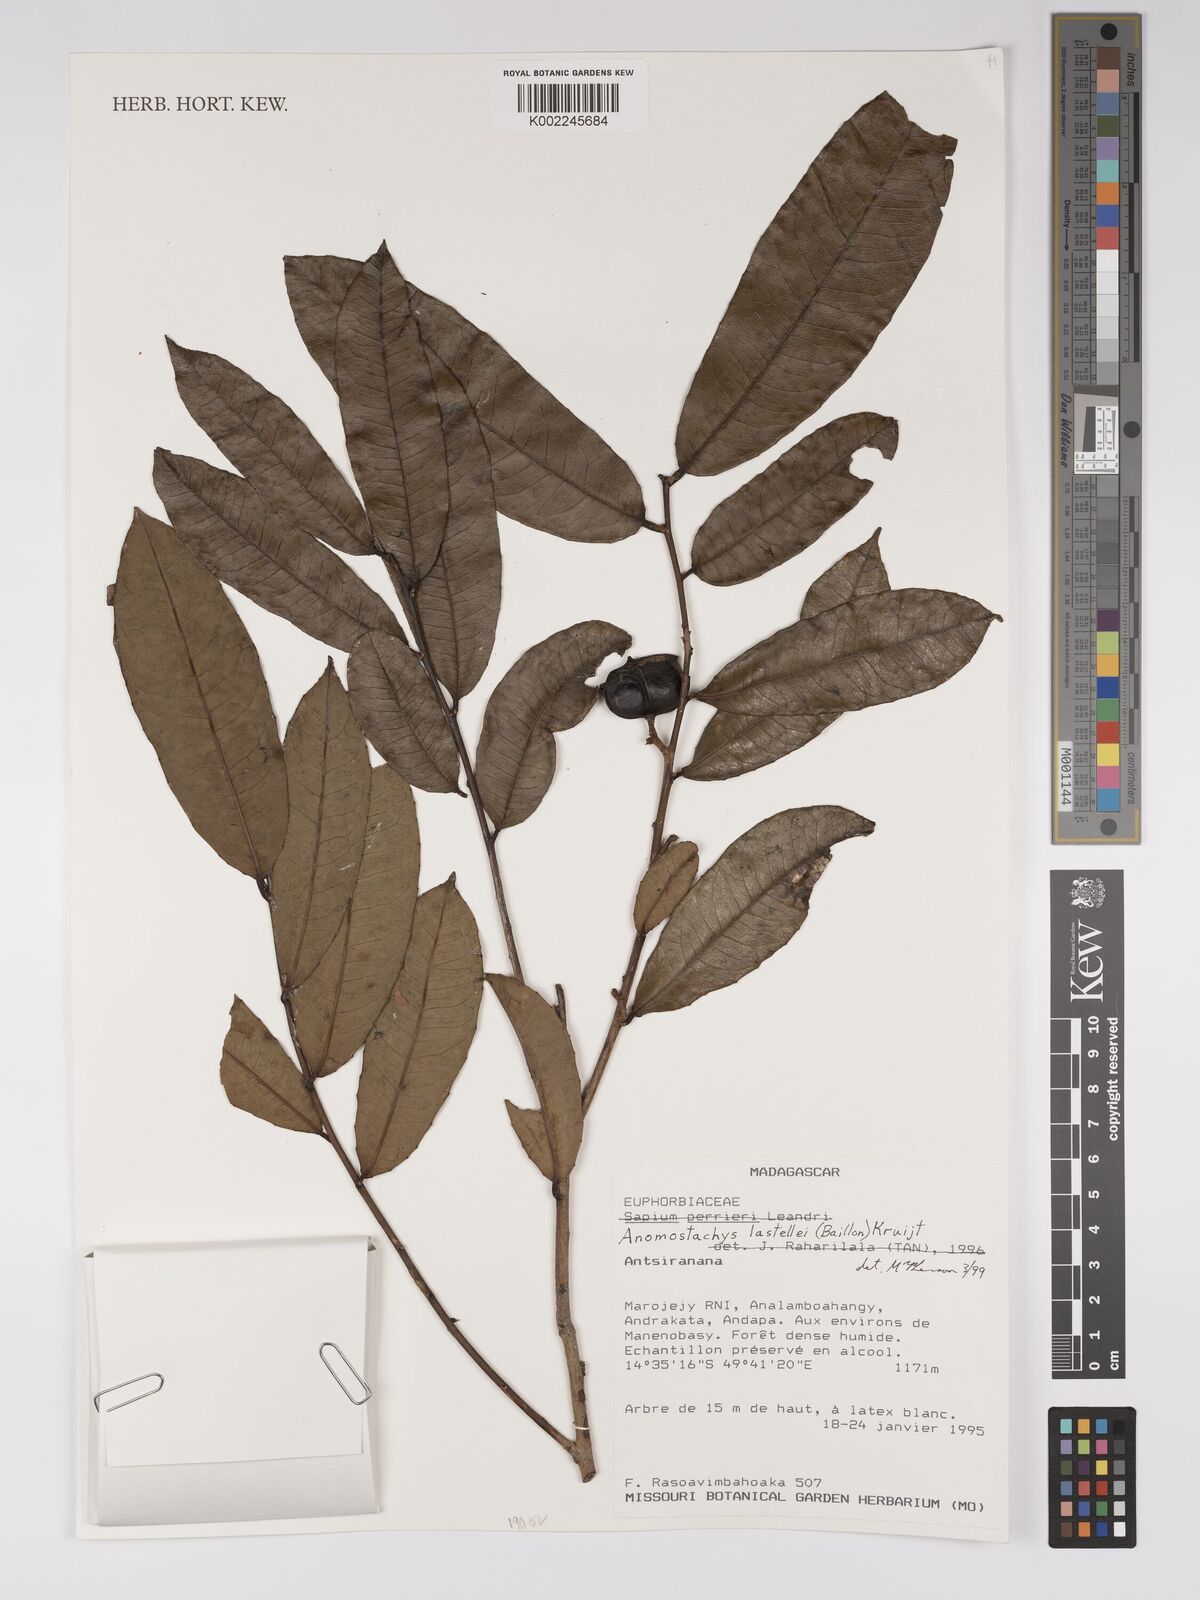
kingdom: Plantae
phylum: Tracheophyta
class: Magnoliopsida
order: Malpighiales
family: Euphorbiaceae
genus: Anomostachys
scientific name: Anomostachys lastellei
